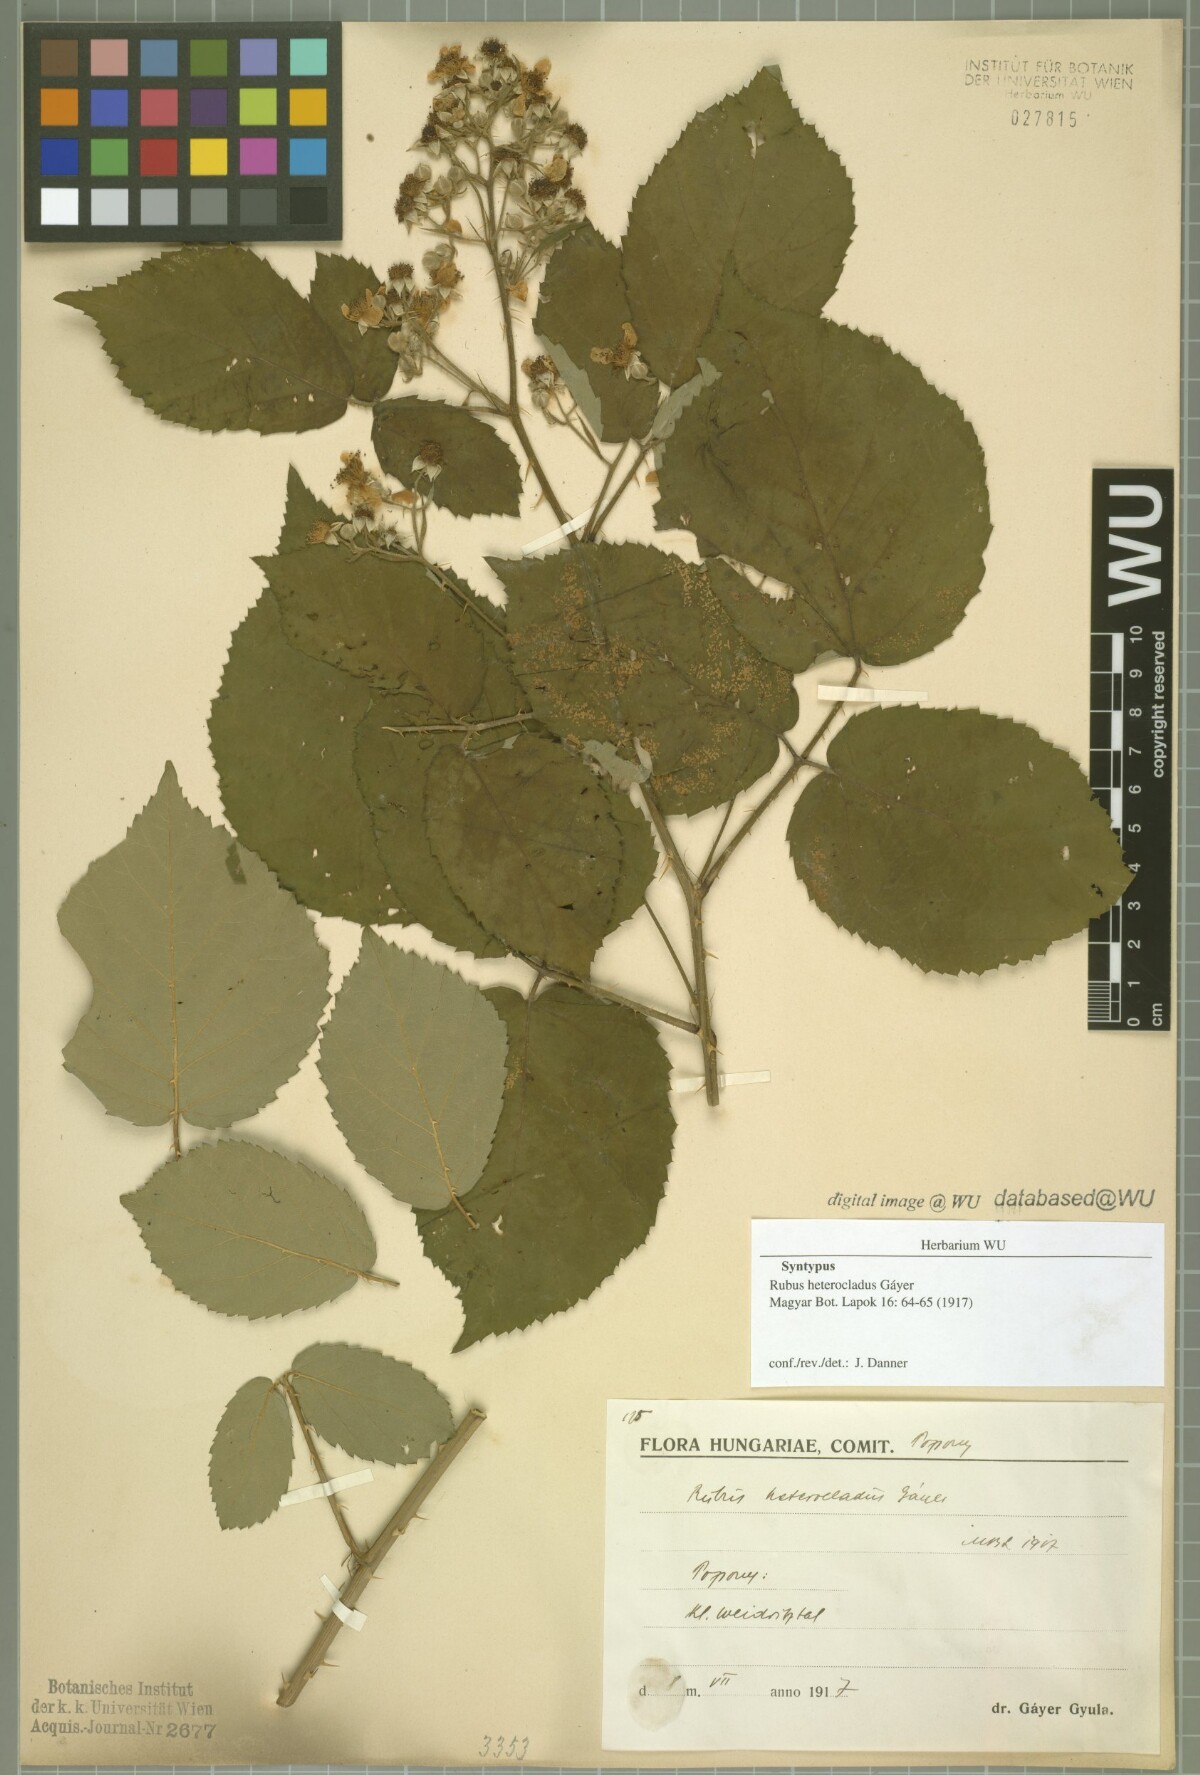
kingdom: Plantae
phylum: Tracheophyta
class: Magnoliopsida
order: Rosales
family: Rosaceae
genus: Rubus
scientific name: Rubus heterocladus
